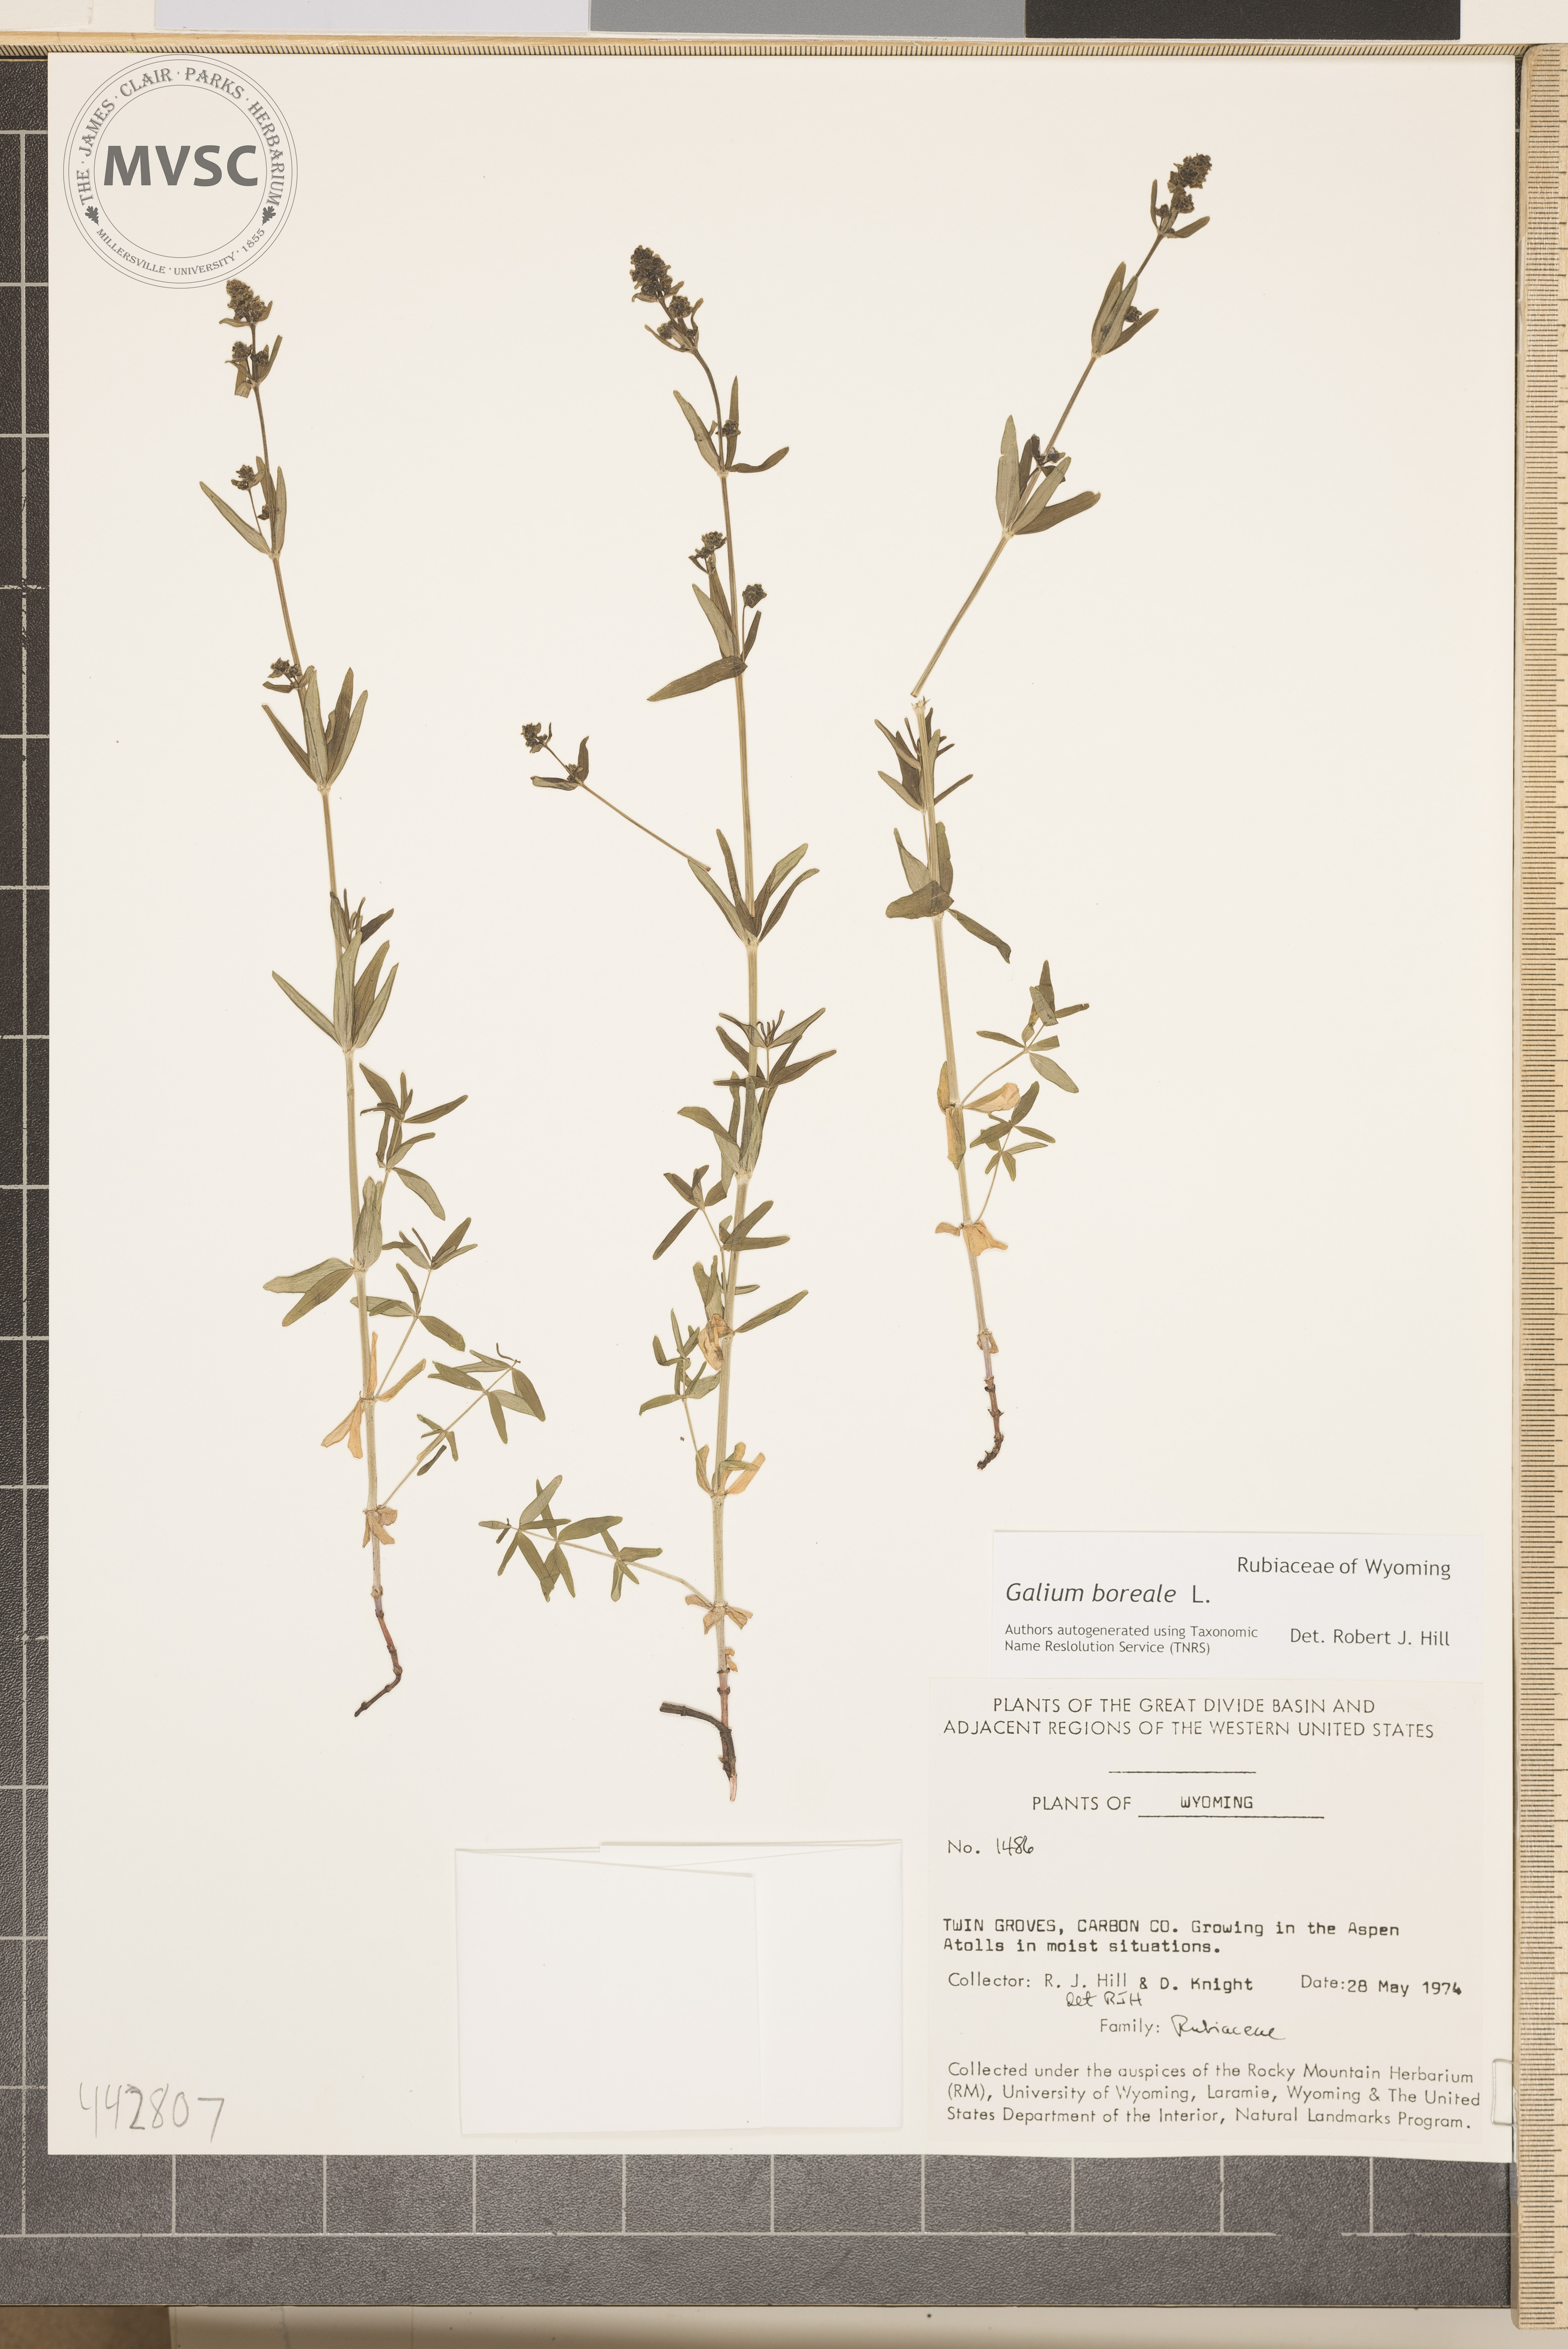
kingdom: Plantae
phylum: Tracheophyta
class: Magnoliopsida
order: Gentianales
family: Rubiaceae
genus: Galium
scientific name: Galium boreale
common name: Northern bedstraw
